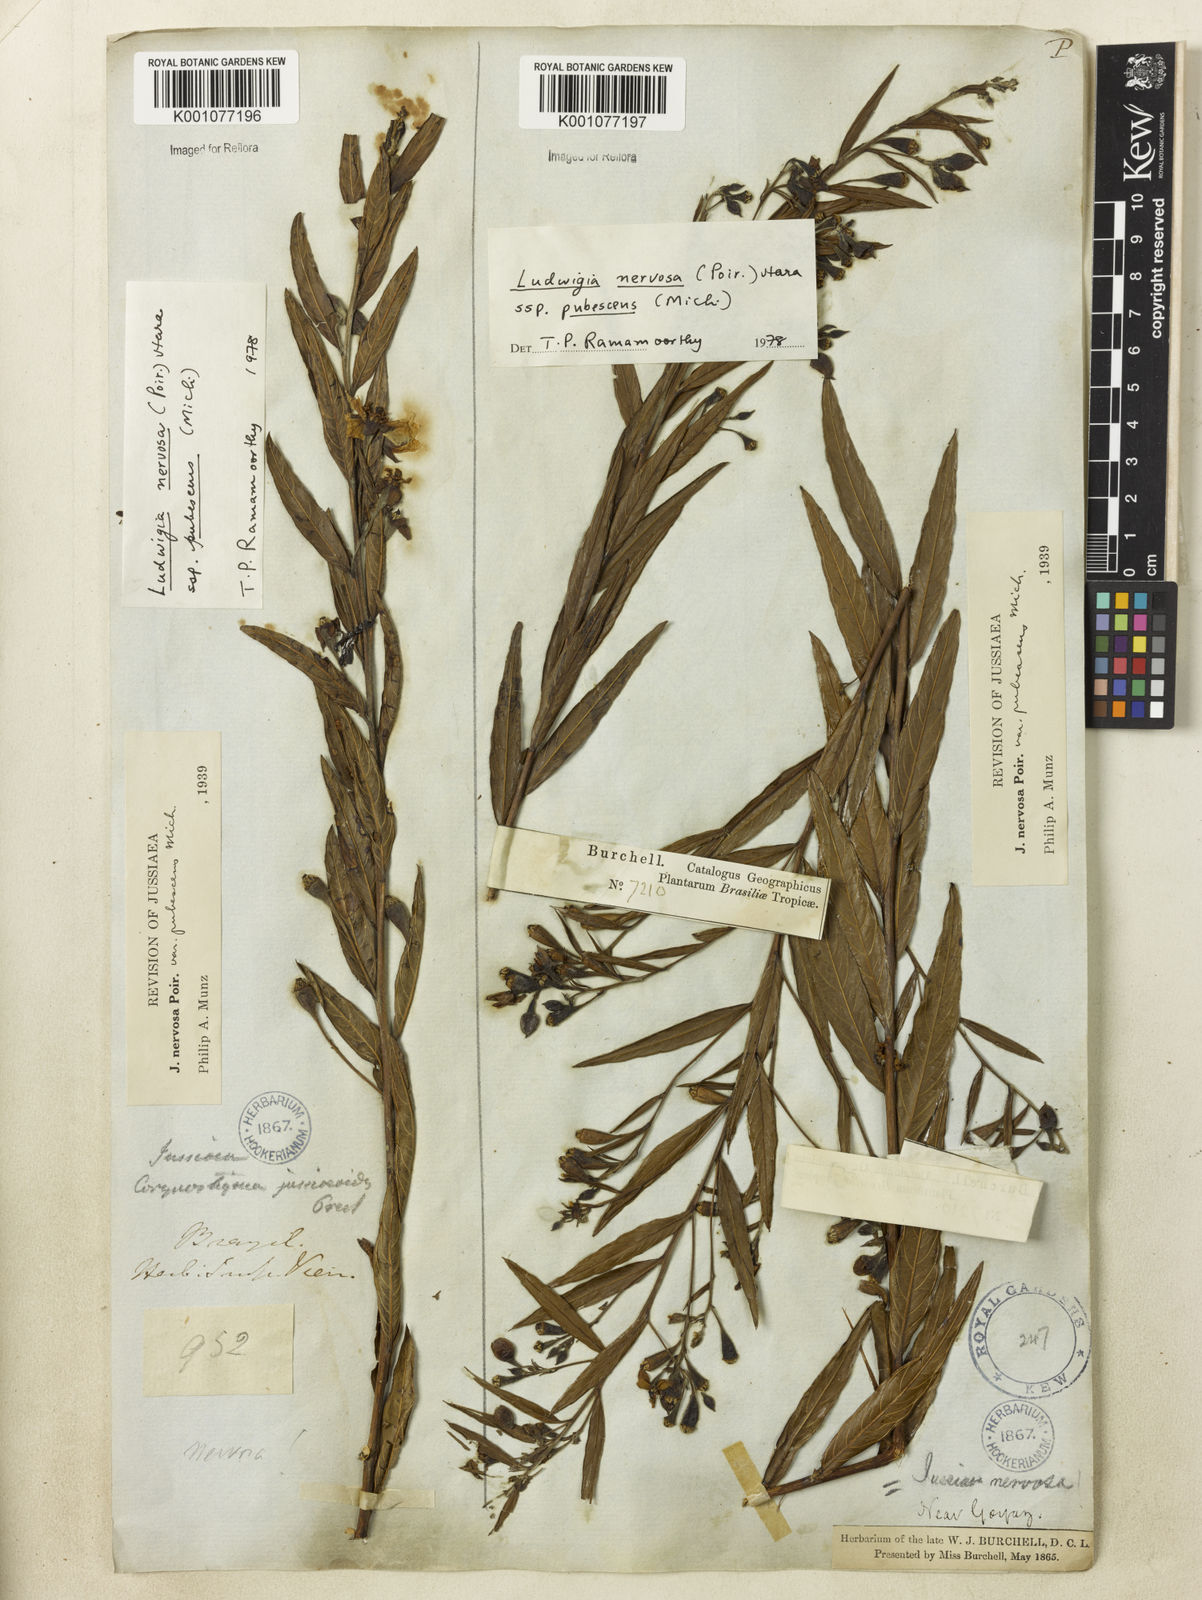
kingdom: Plantae
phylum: Tracheophyta
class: Magnoliopsida
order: Myrtales
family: Onagraceae
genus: Ludwigia
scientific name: Ludwigia nervosa
